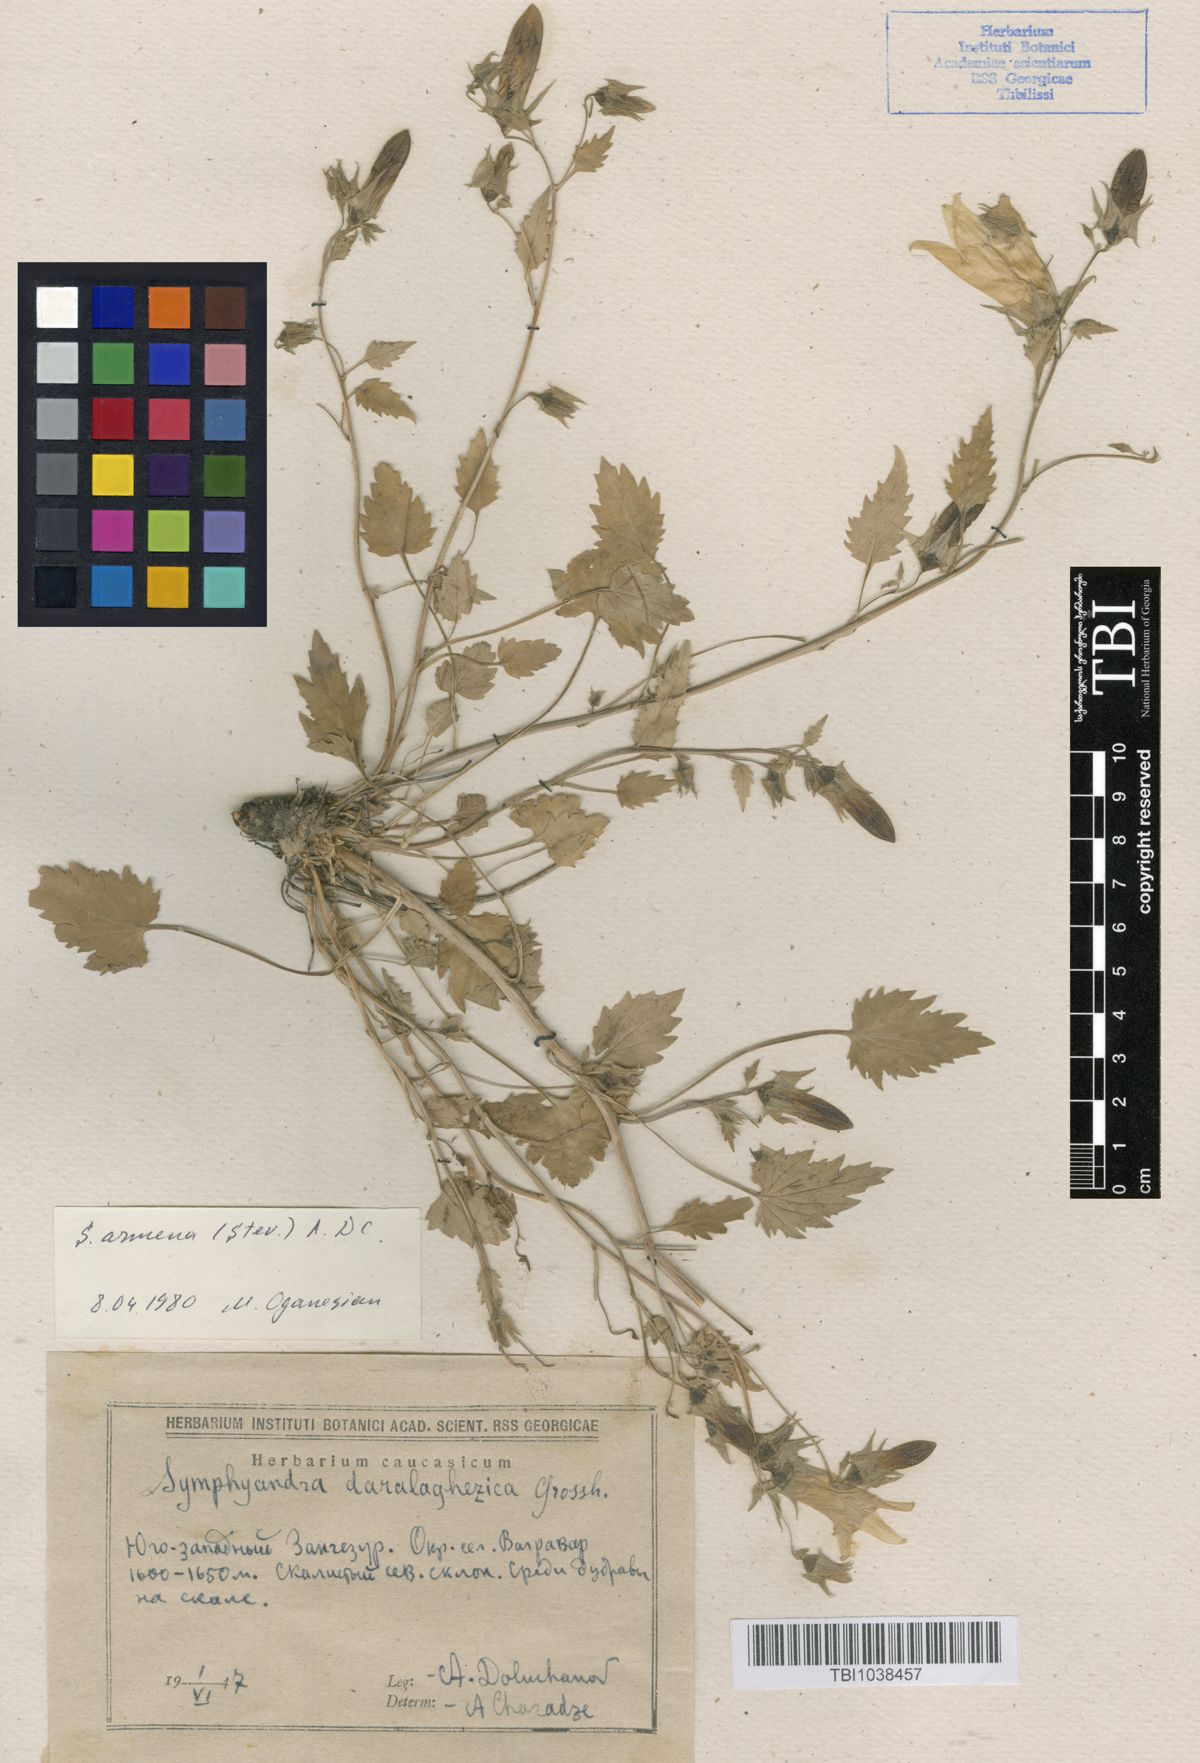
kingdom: Plantae
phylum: Tracheophyta
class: Magnoliopsida
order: Asterales
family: Campanulaceae
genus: Campanula
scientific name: Campanula armena
